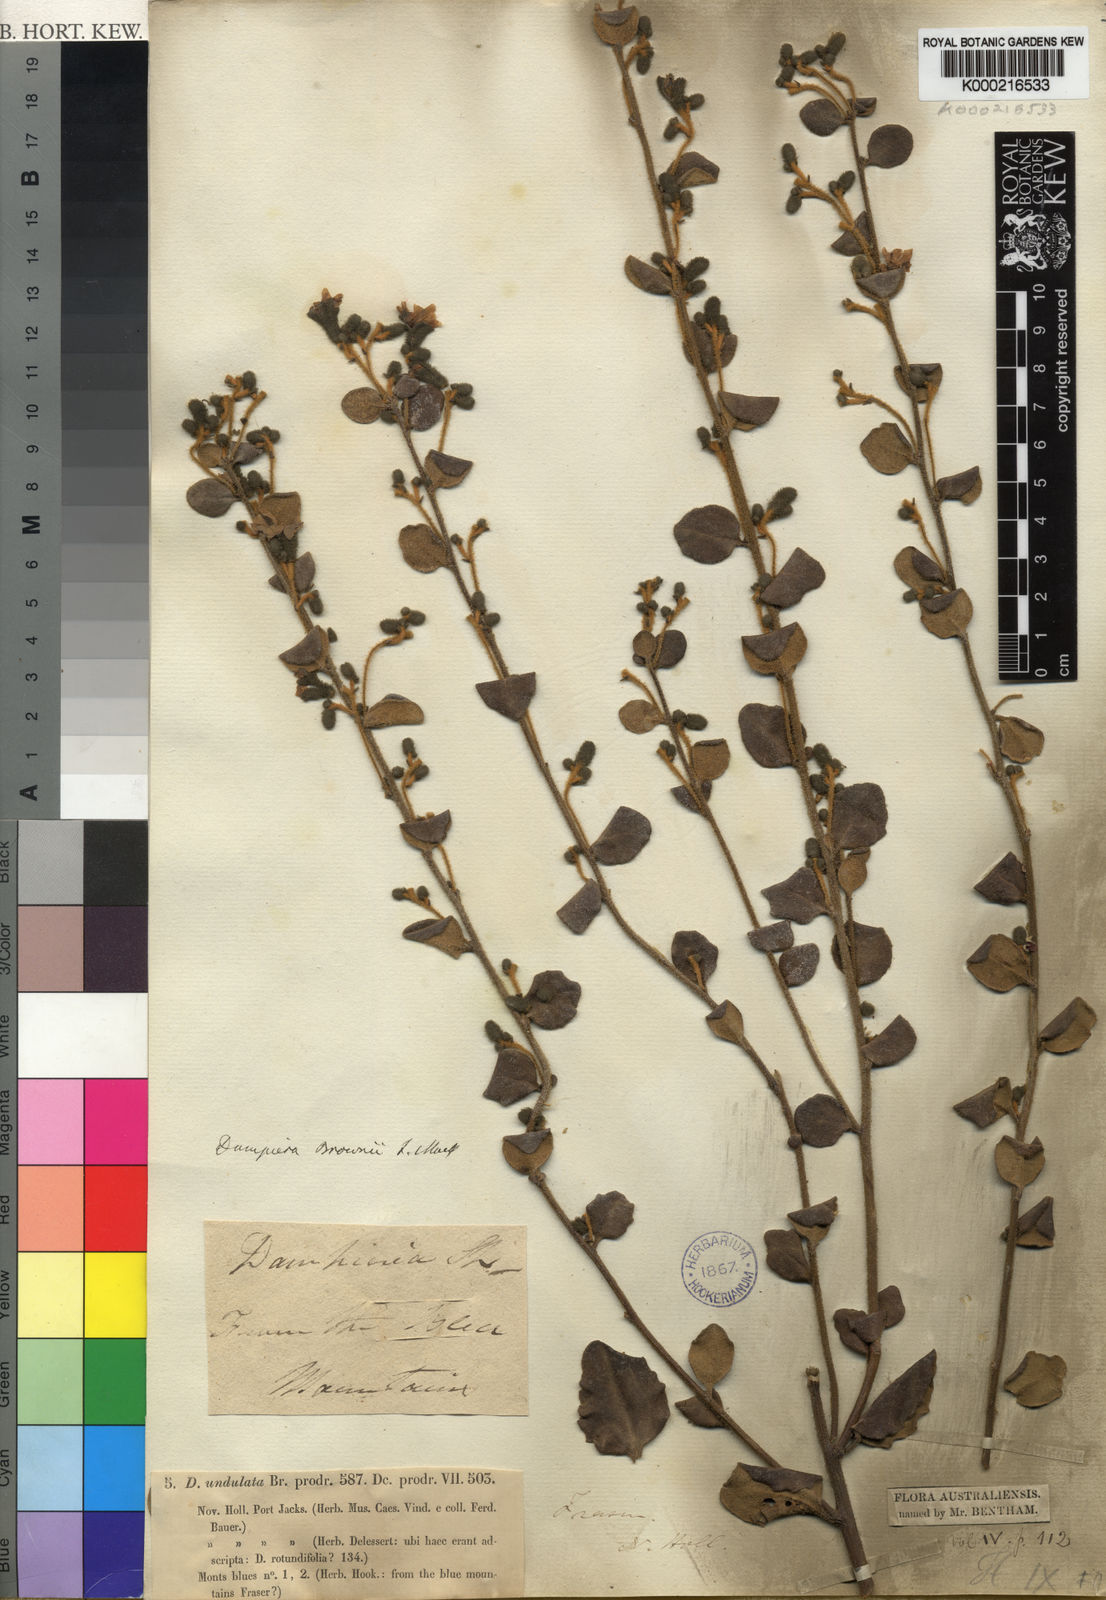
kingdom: Plantae
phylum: Tracheophyta
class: Magnoliopsida
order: Asterales
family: Goodeniaceae
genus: Dampiera
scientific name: Dampiera purpurea
